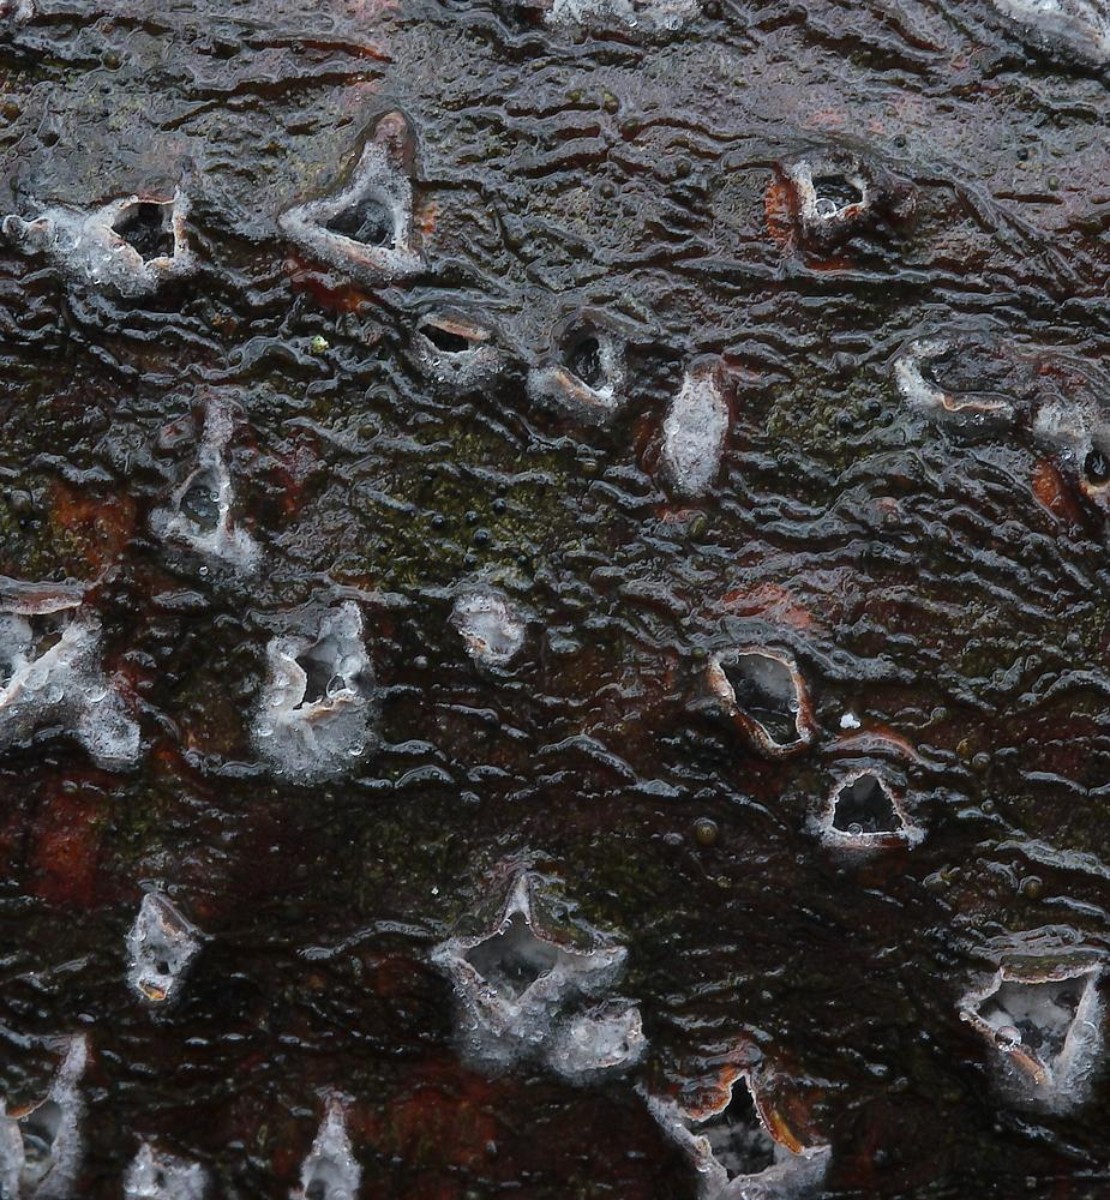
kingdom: Fungi
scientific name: Fungi
